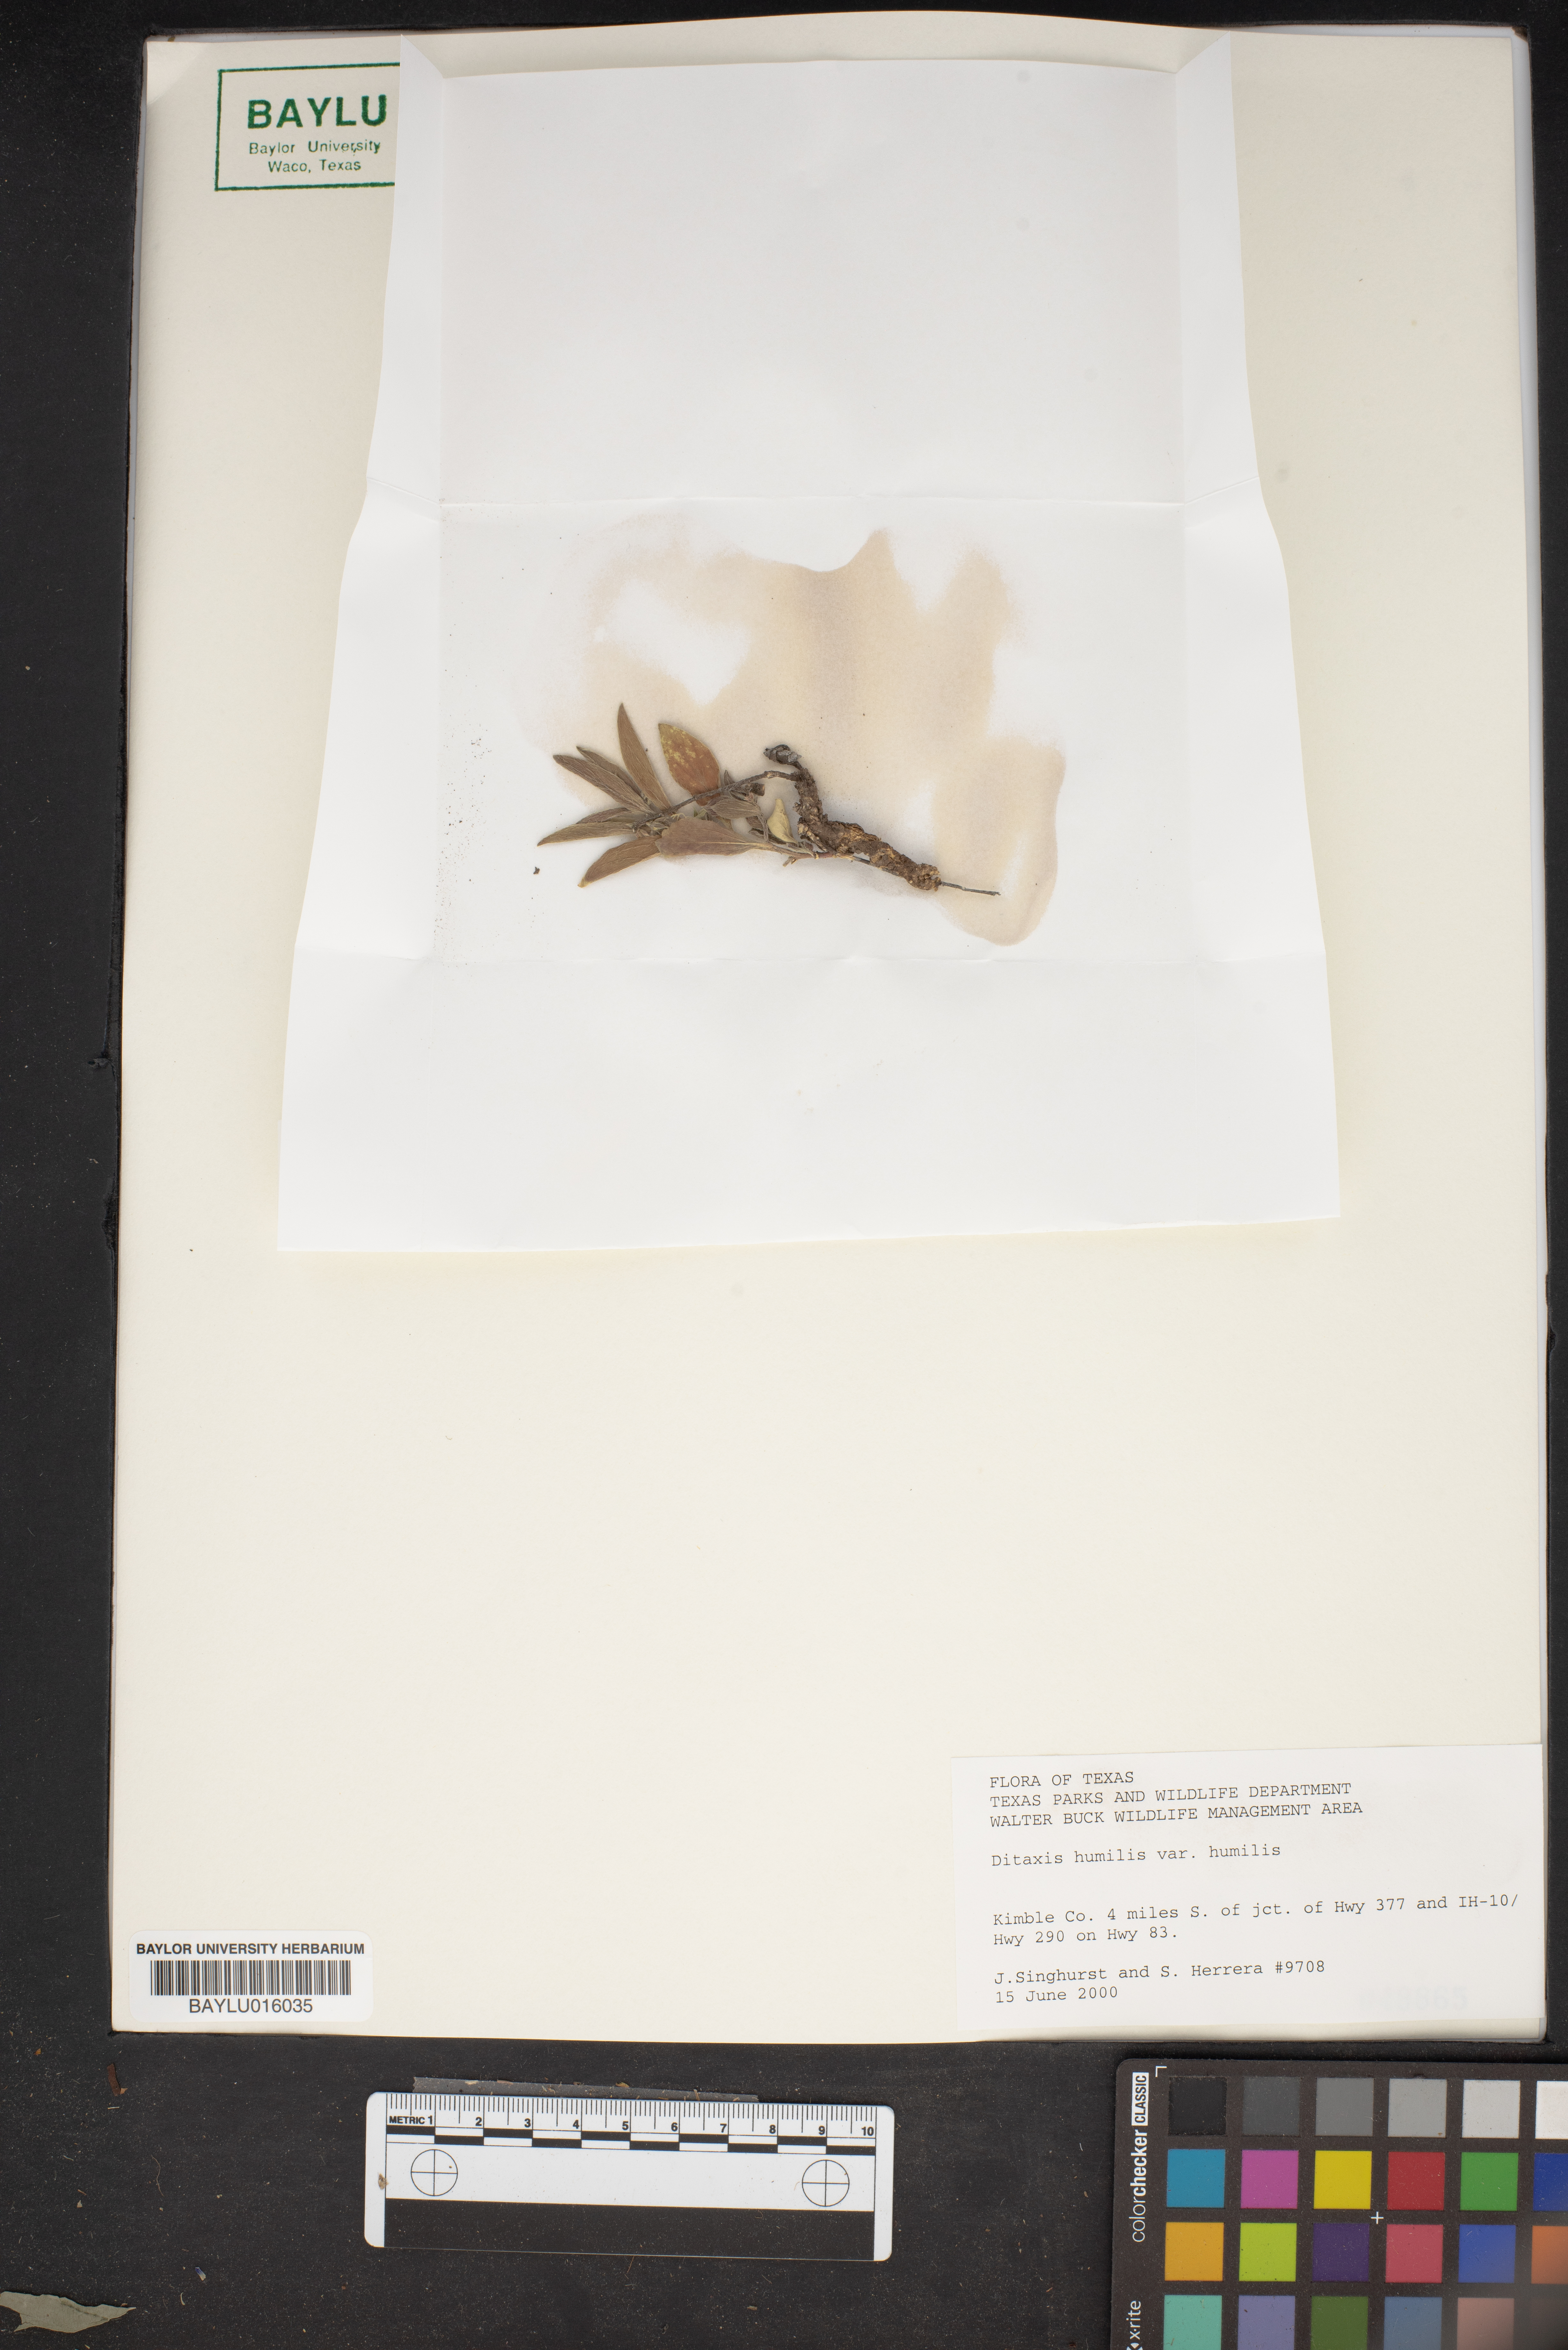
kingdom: Plantae
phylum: Tracheophyta
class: Magnoliopsida
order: Malpighiales
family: Euphorbiaceae
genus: Ditaxis
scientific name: Ditaxis humilis
